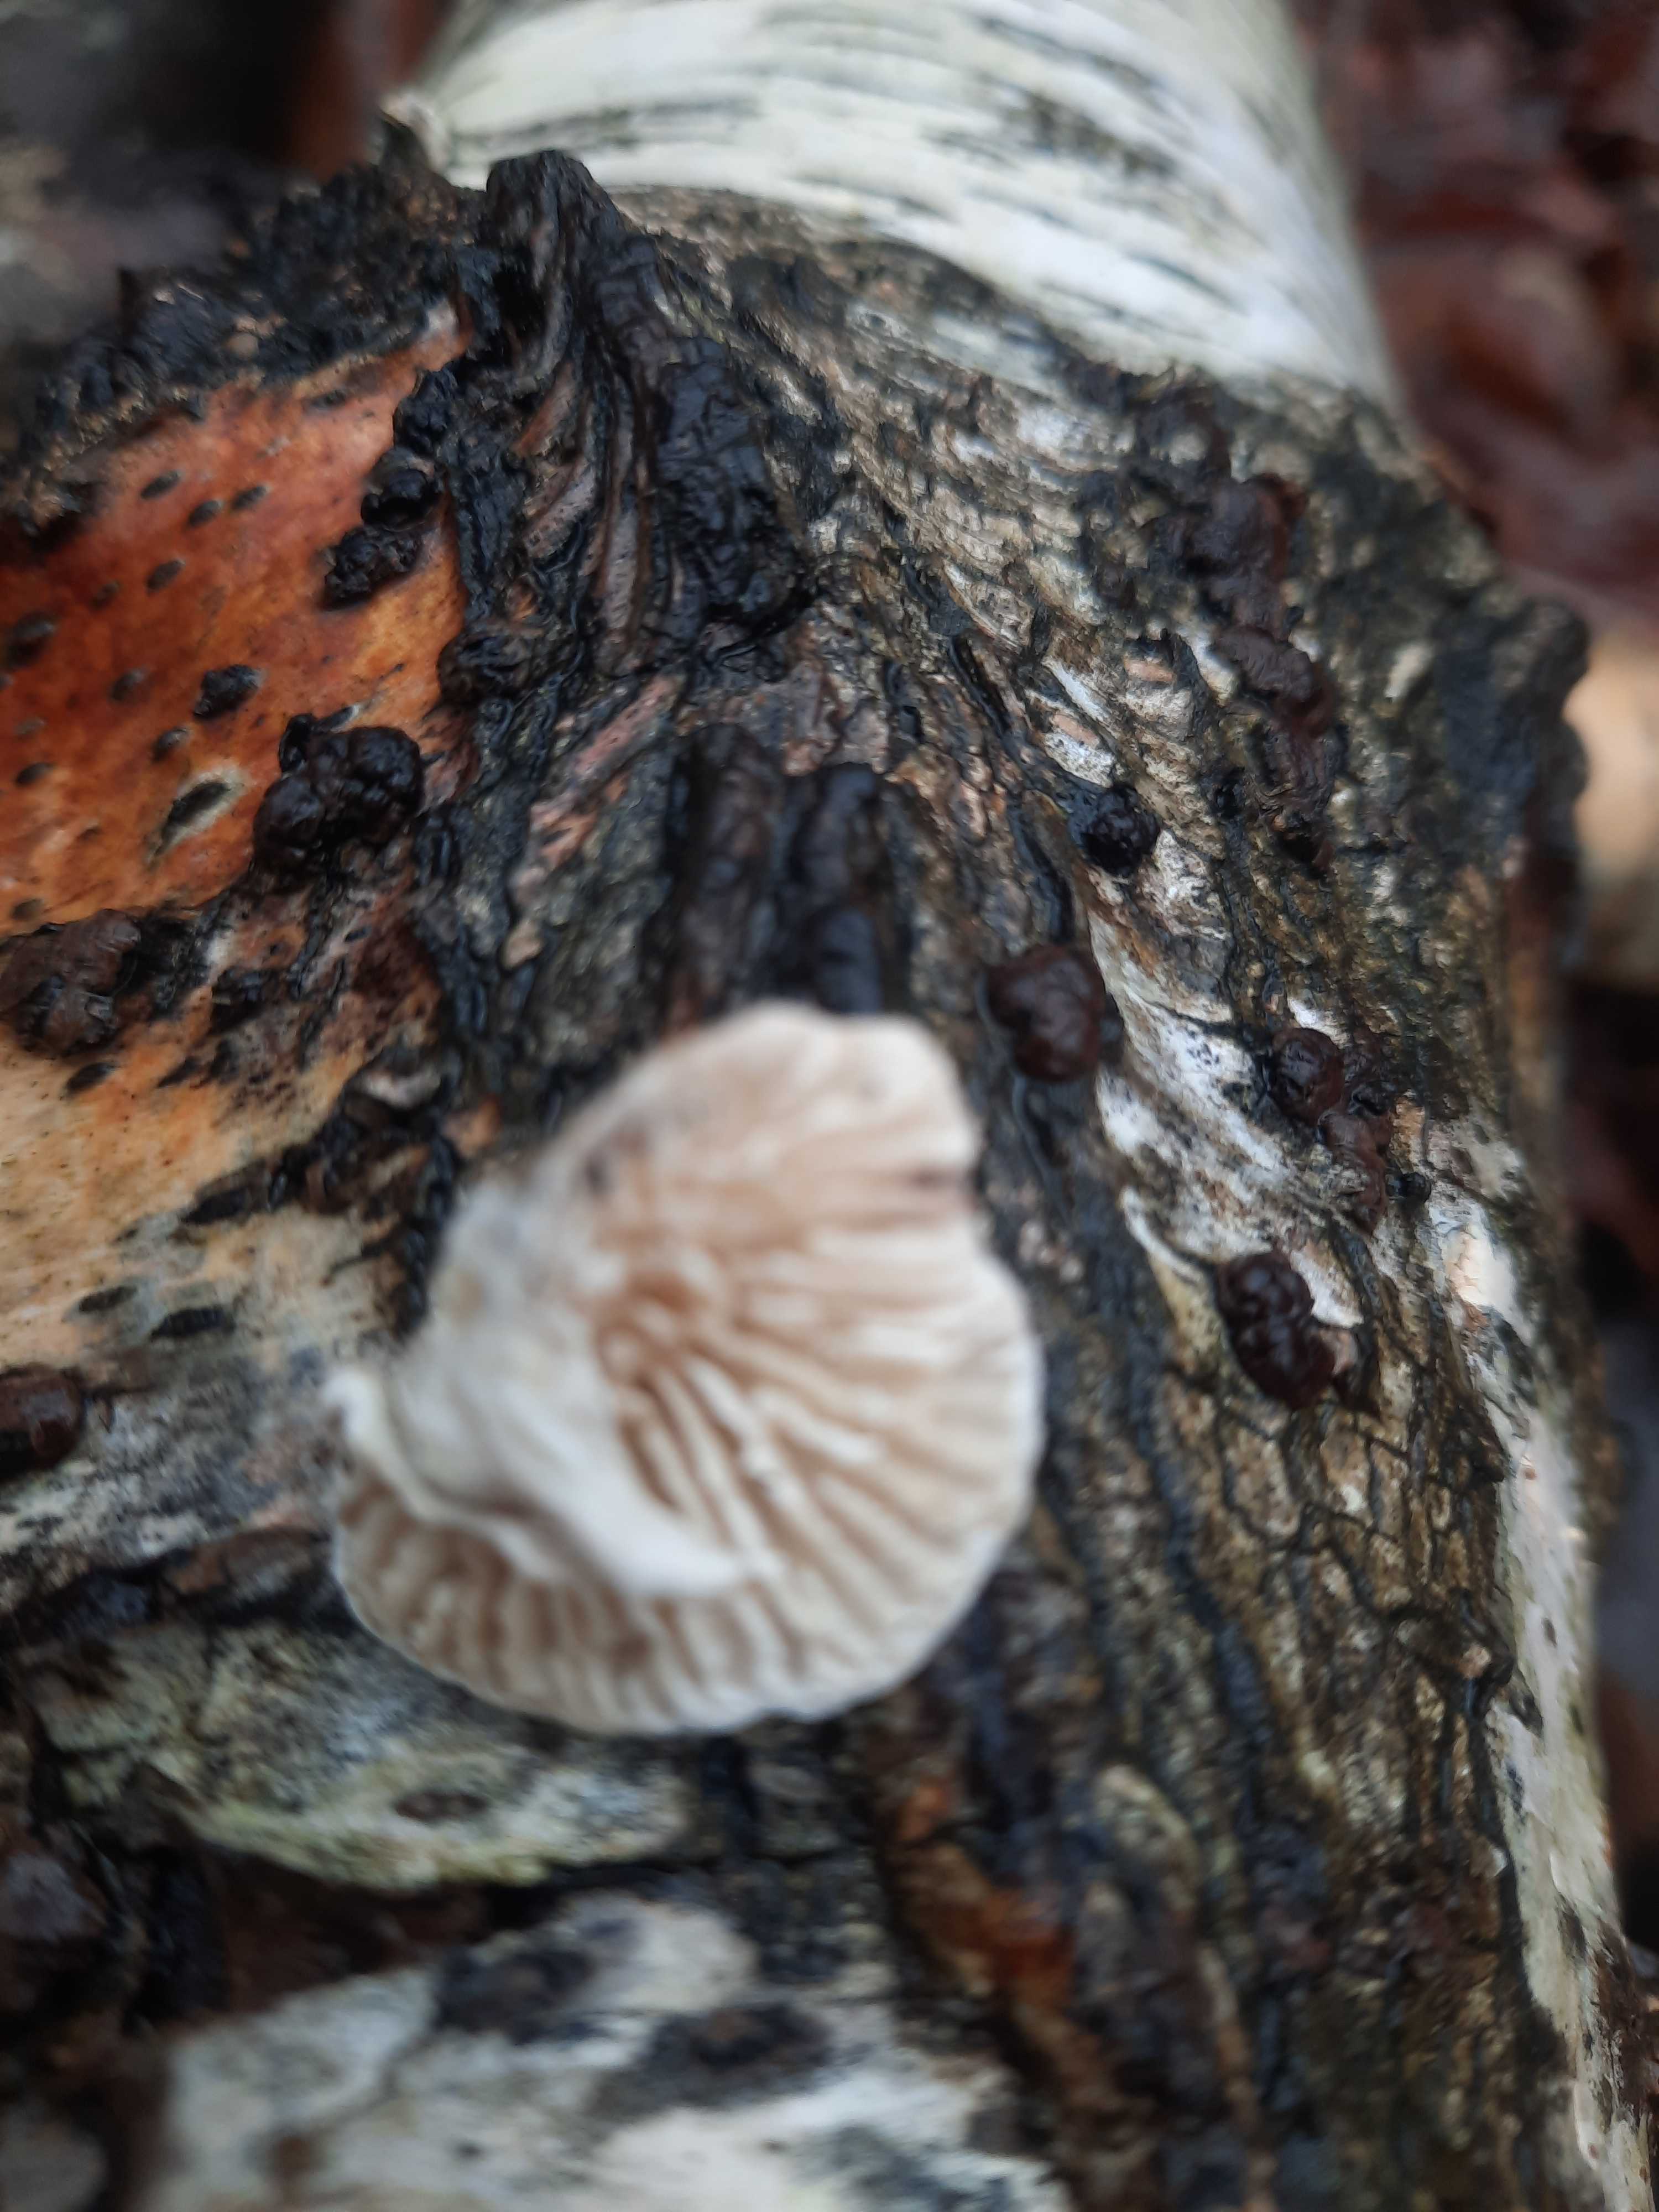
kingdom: Fungi
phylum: Basidiomycota
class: Agaricomycetes
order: Polyporales
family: Polyporaceae
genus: Lenzites
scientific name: Lenzites betulinus
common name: birke-læderporesvamp
